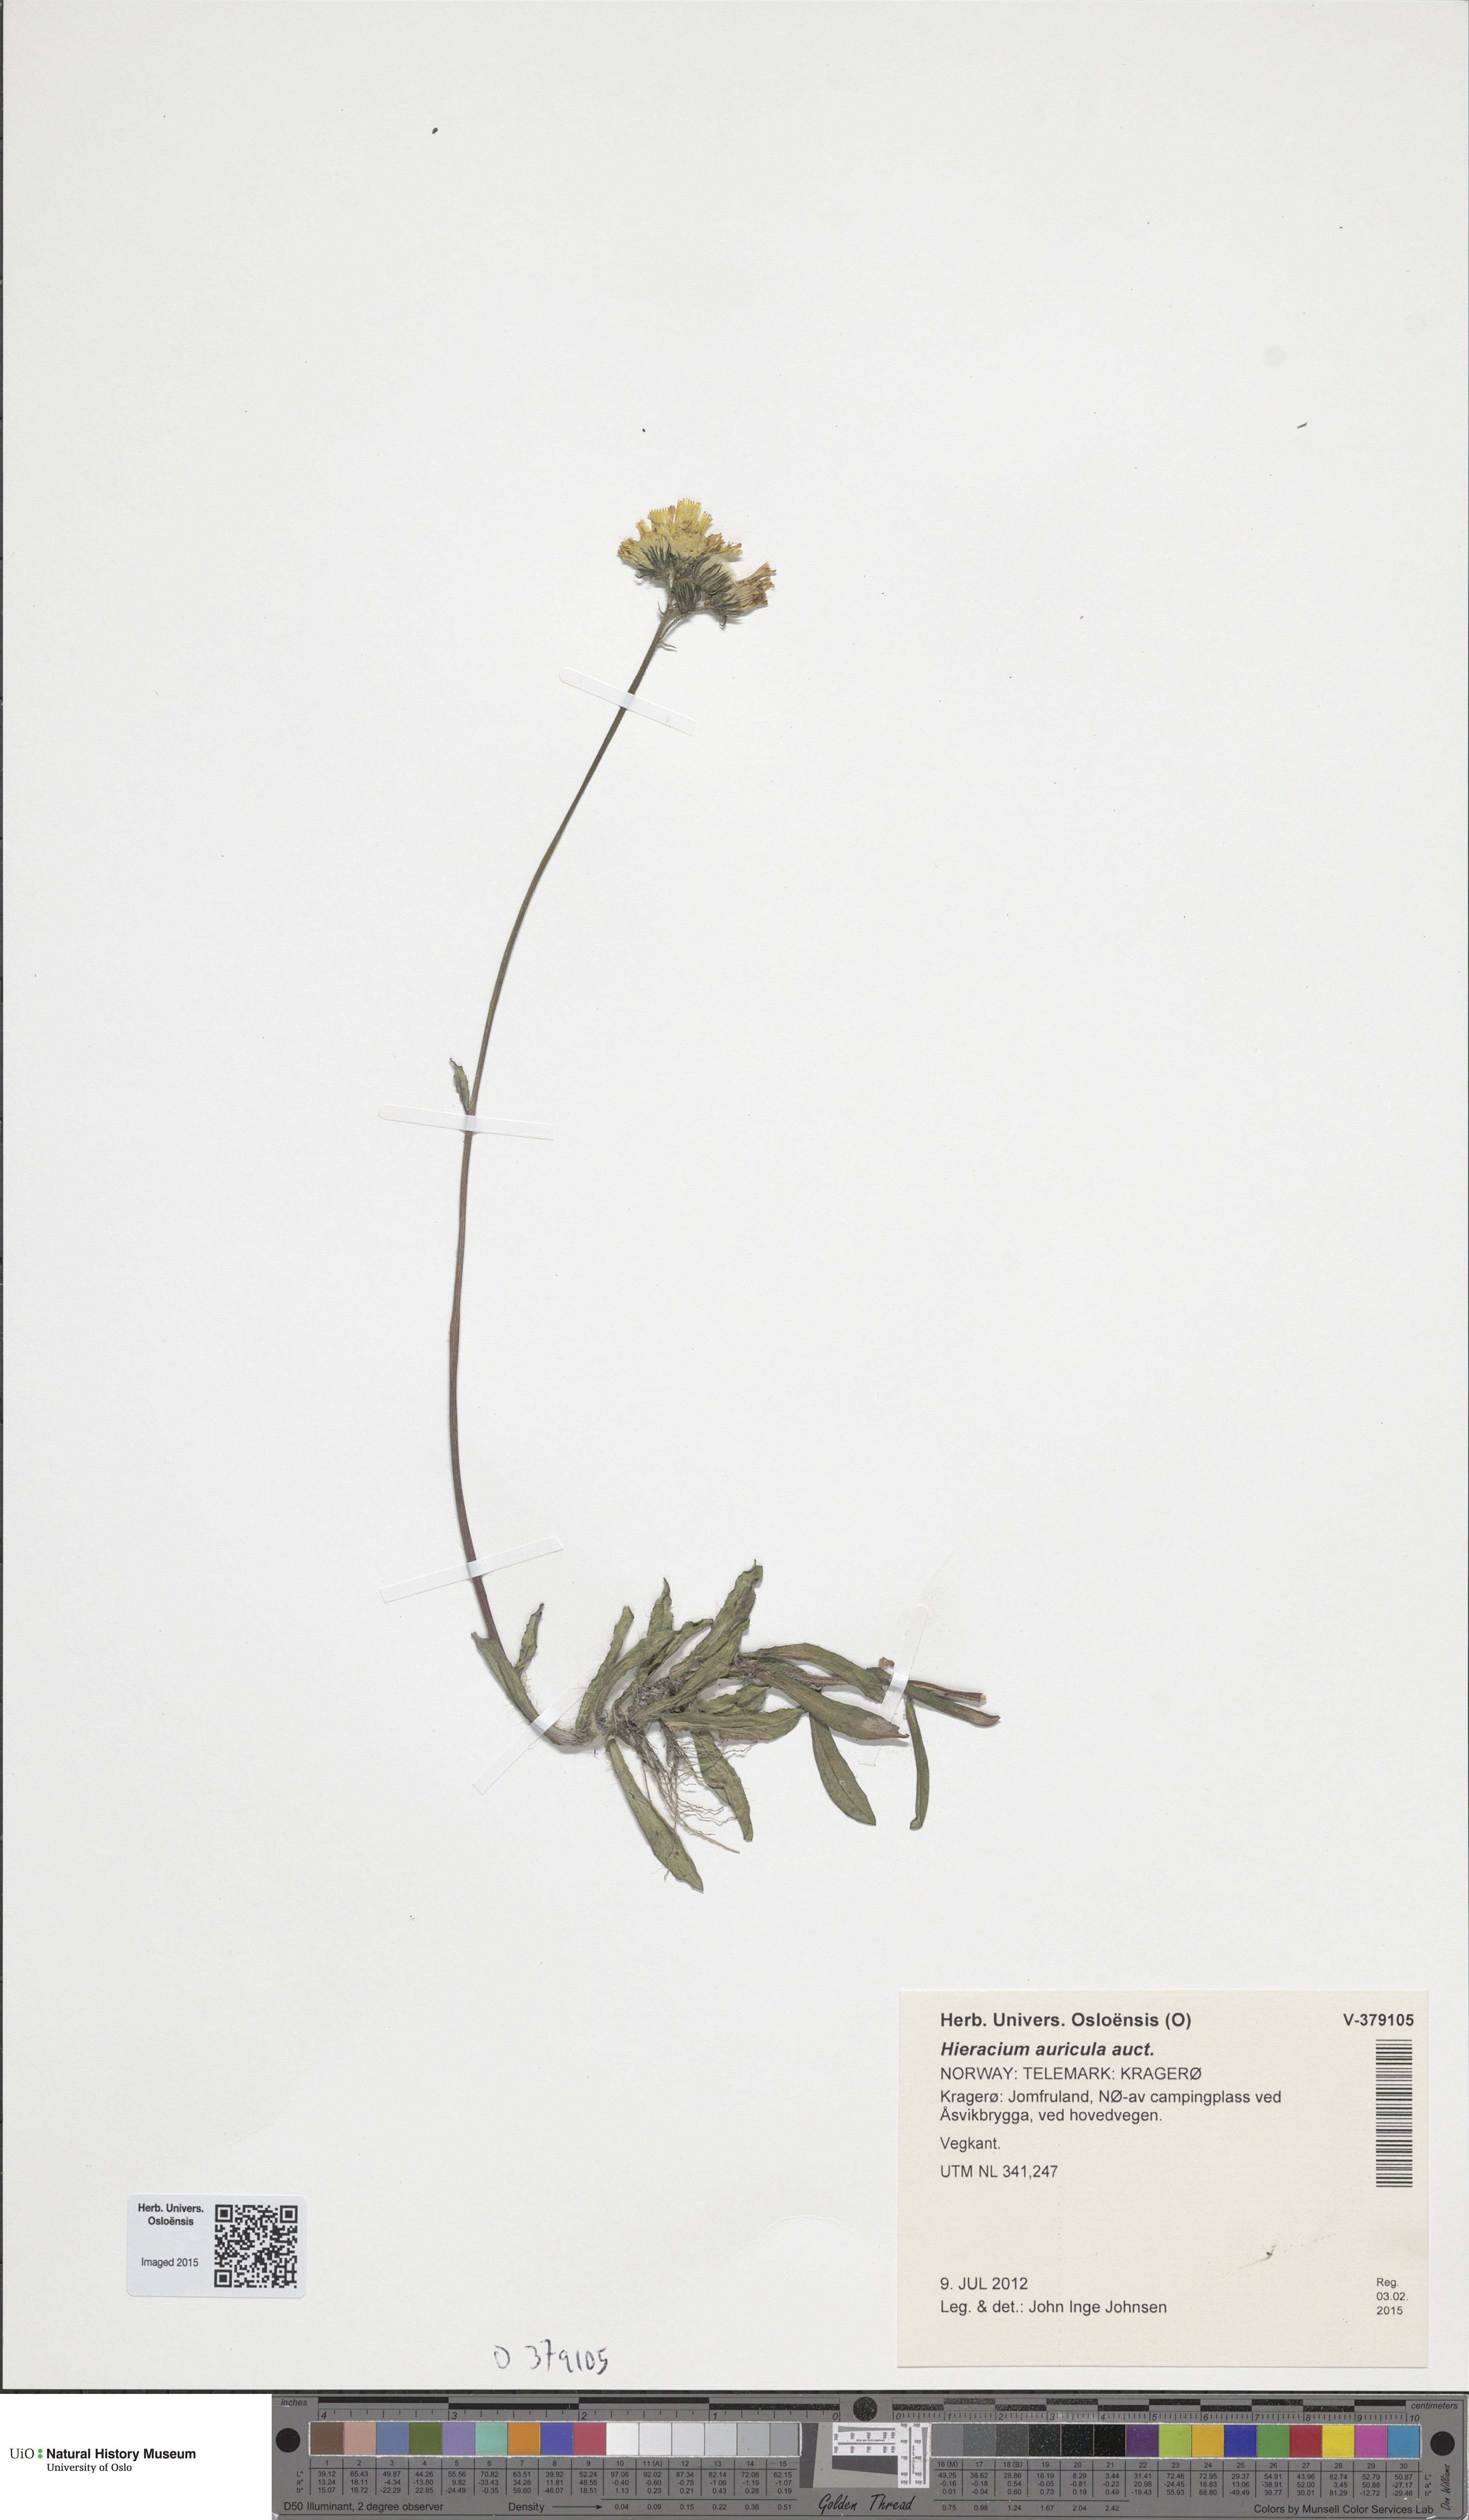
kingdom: Plantae
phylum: Tracheophyta
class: Magnoliopsida
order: Asterales
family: Asteraceae
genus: Pilosella
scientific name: Pilosella lactucella
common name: Glaucous fox-and-cubs
